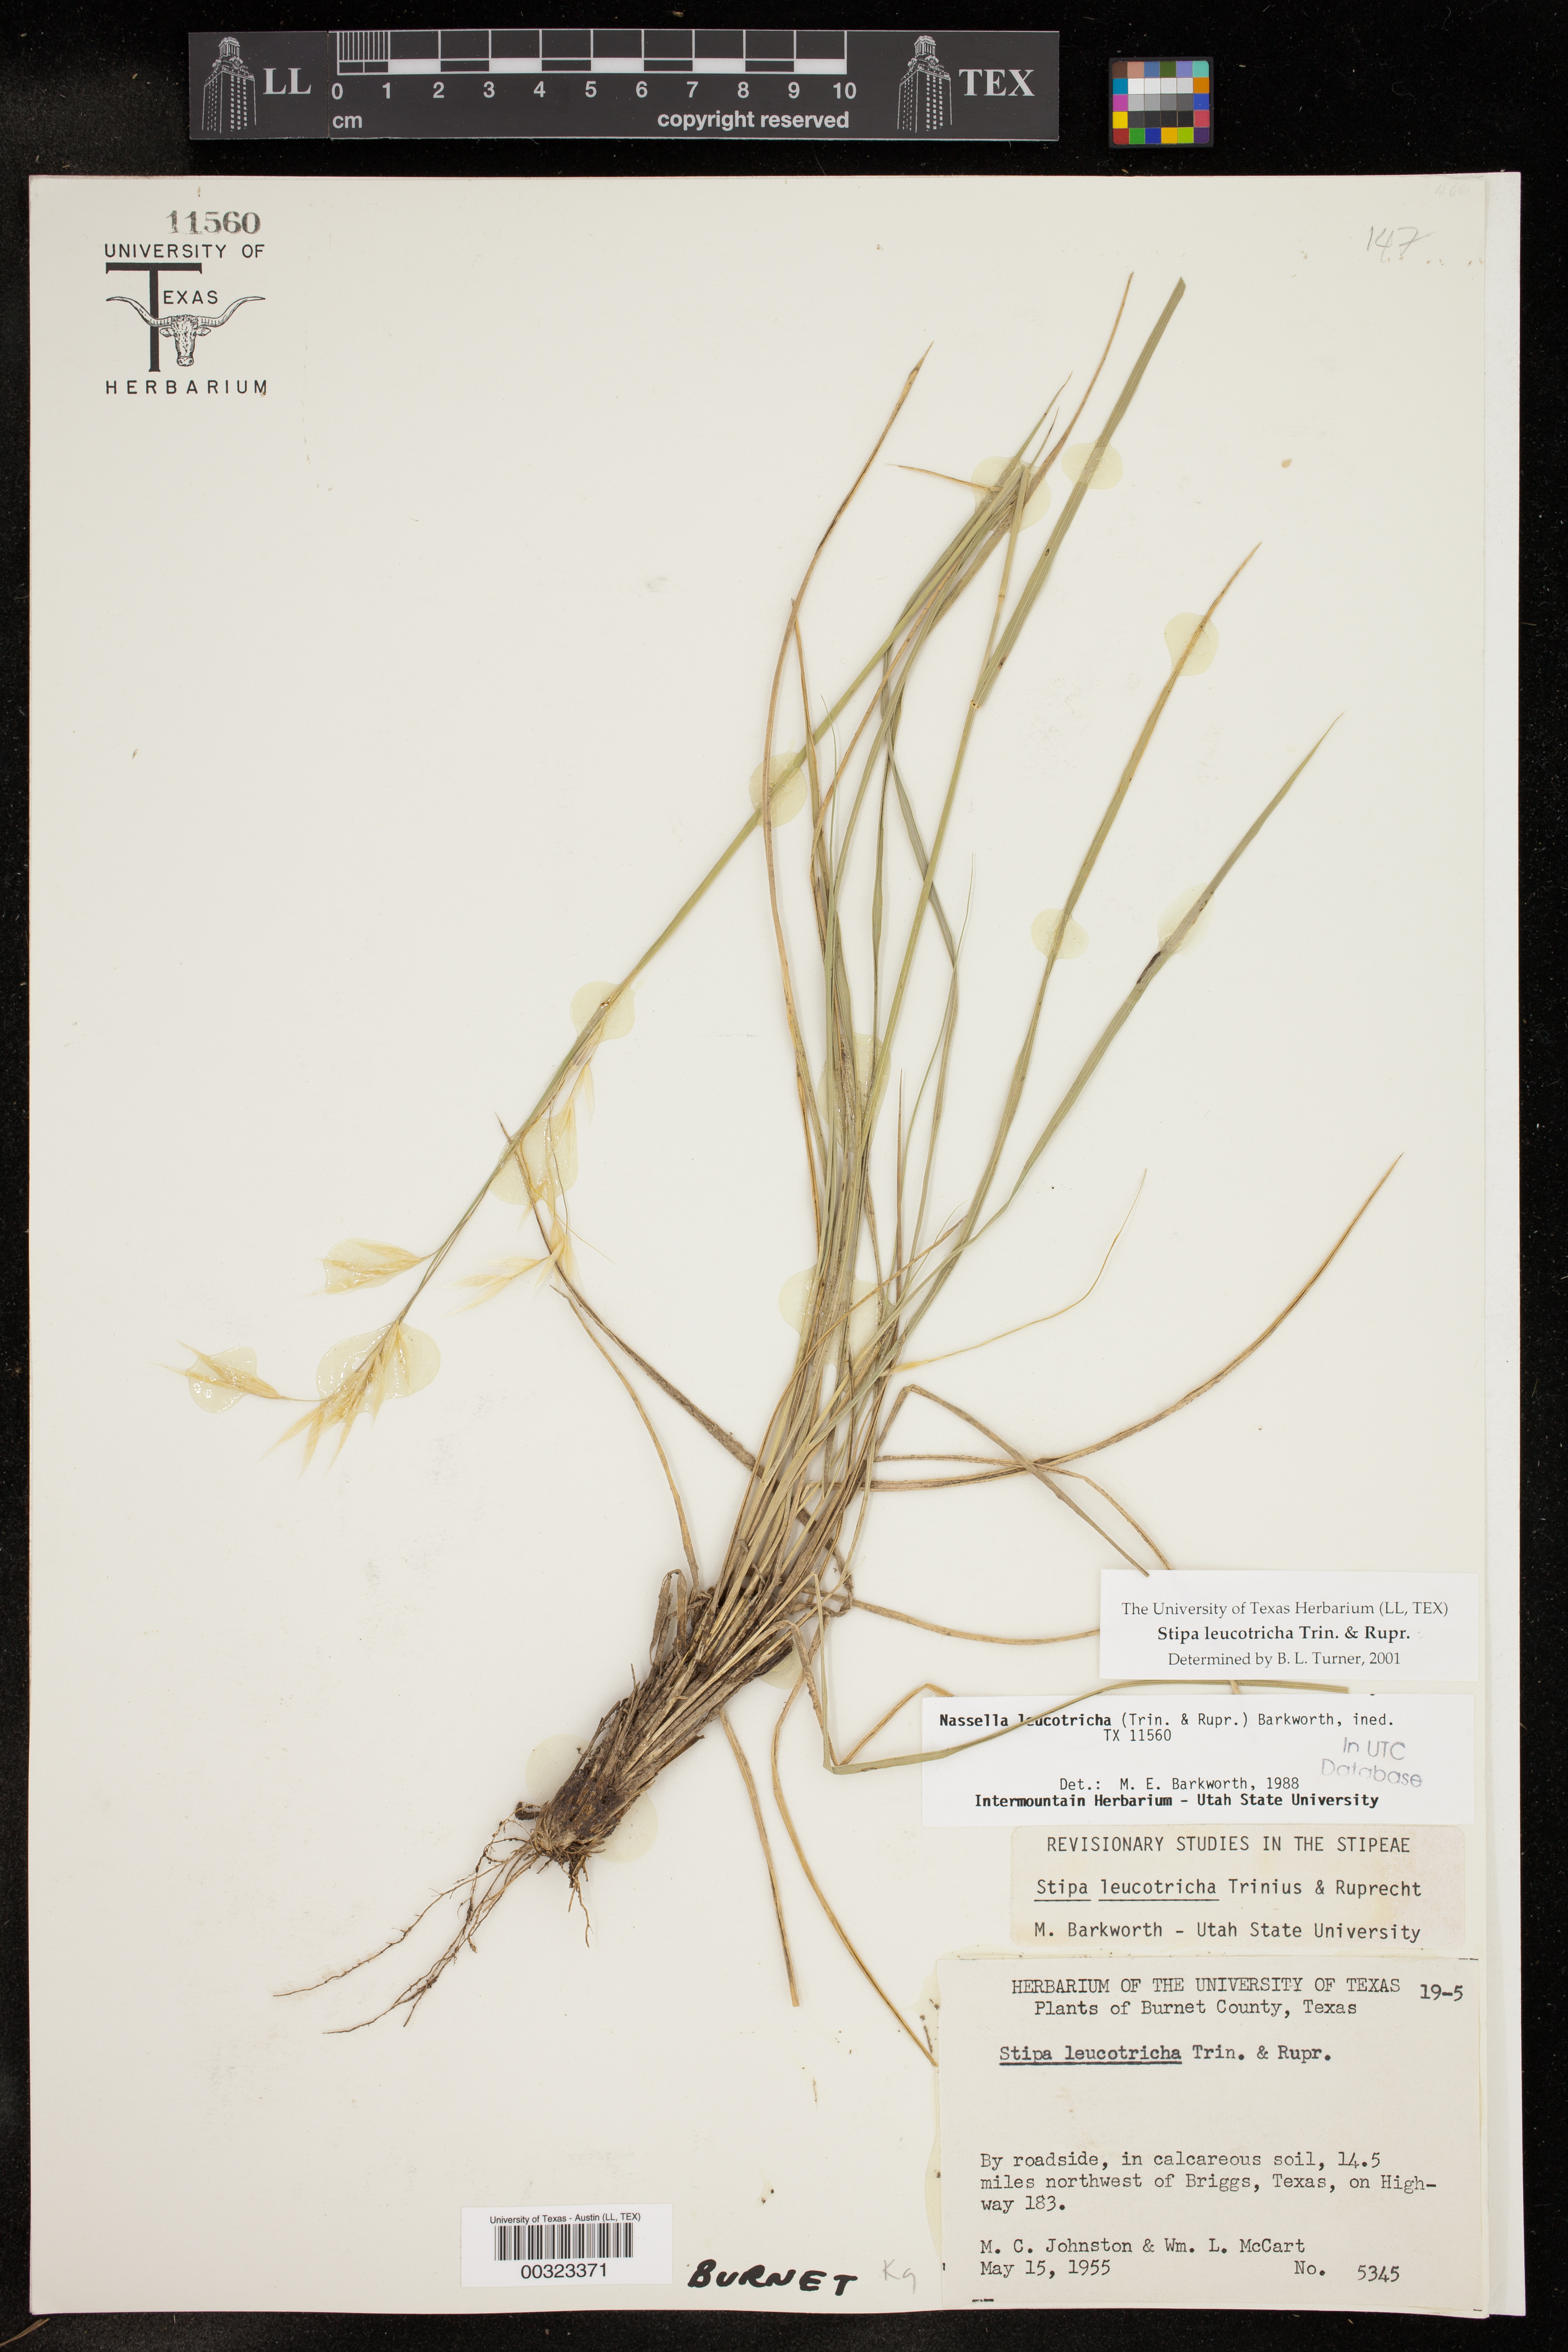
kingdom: Plantae
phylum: Tracheophyta
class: Liliopsida
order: Poales
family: Poaceae
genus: Nassella
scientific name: Nassella leucotricha
